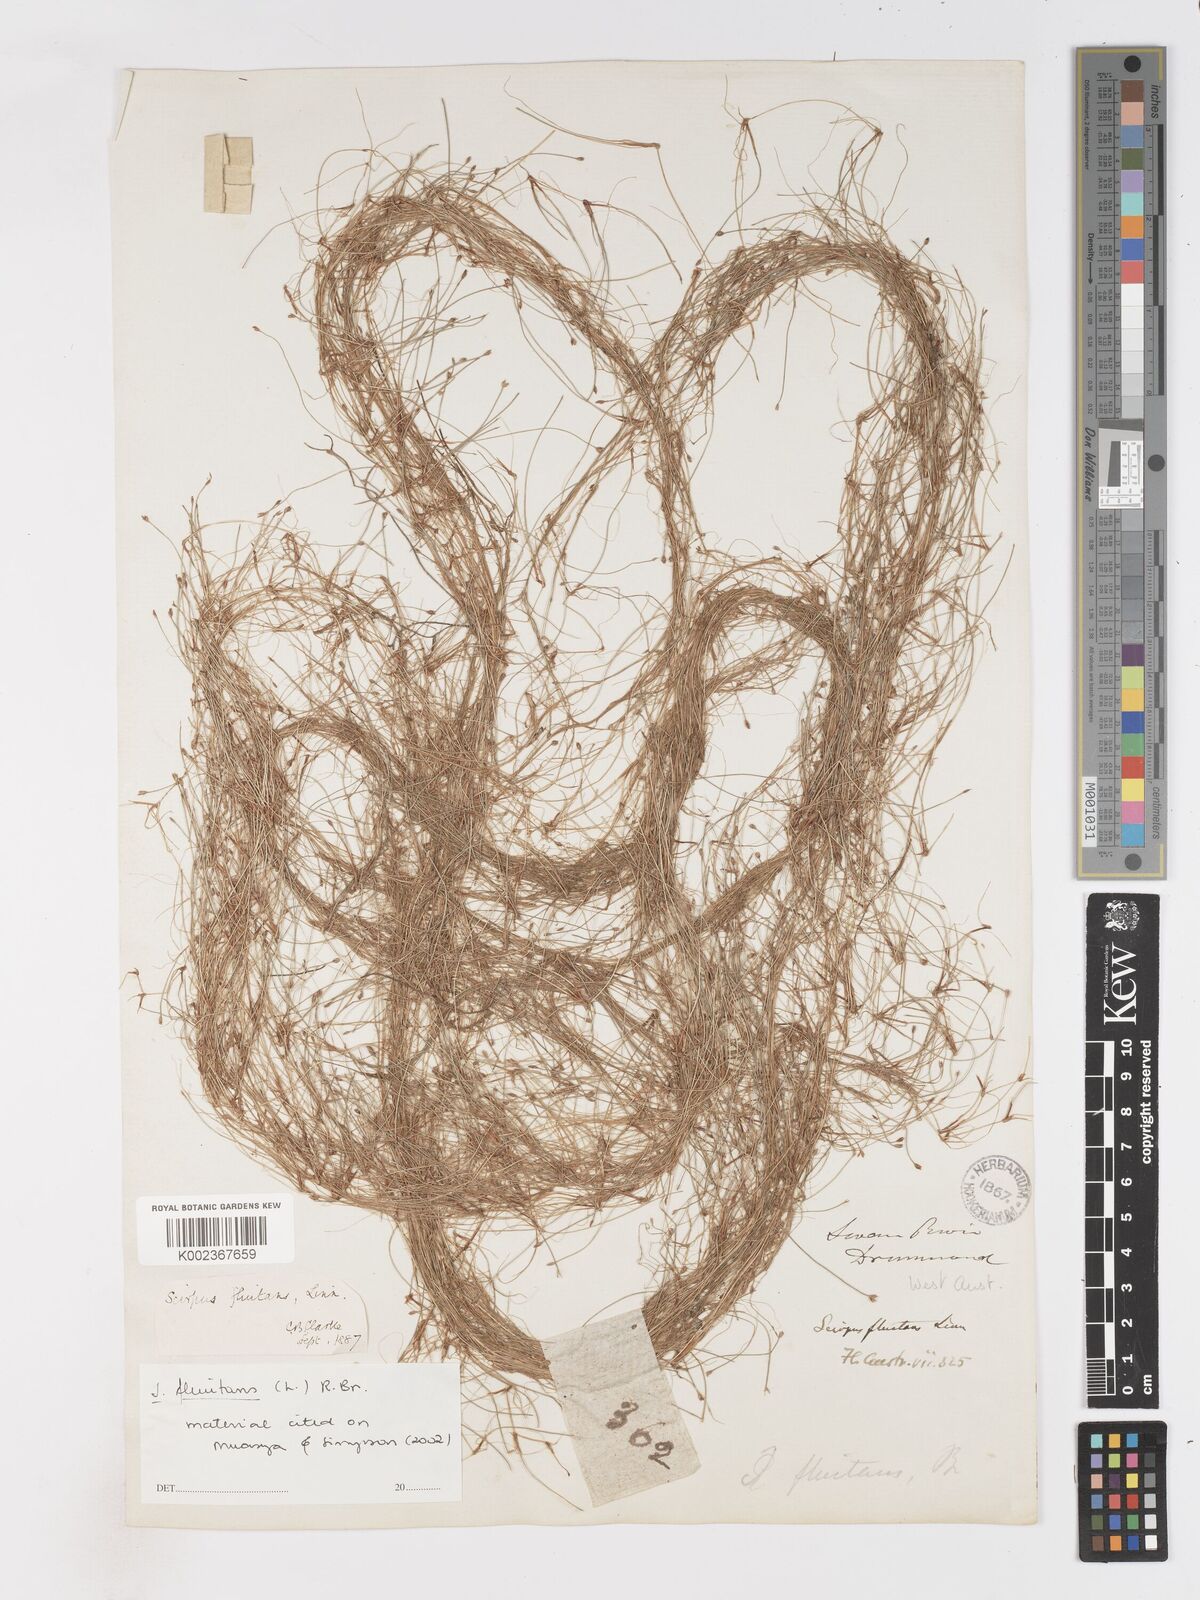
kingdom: Plantae
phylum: Tracheophyta
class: Liliopsida
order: Poales
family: Cyperaceae
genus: Isolepis
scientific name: Isolepis fluitans
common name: Floating club-rush
